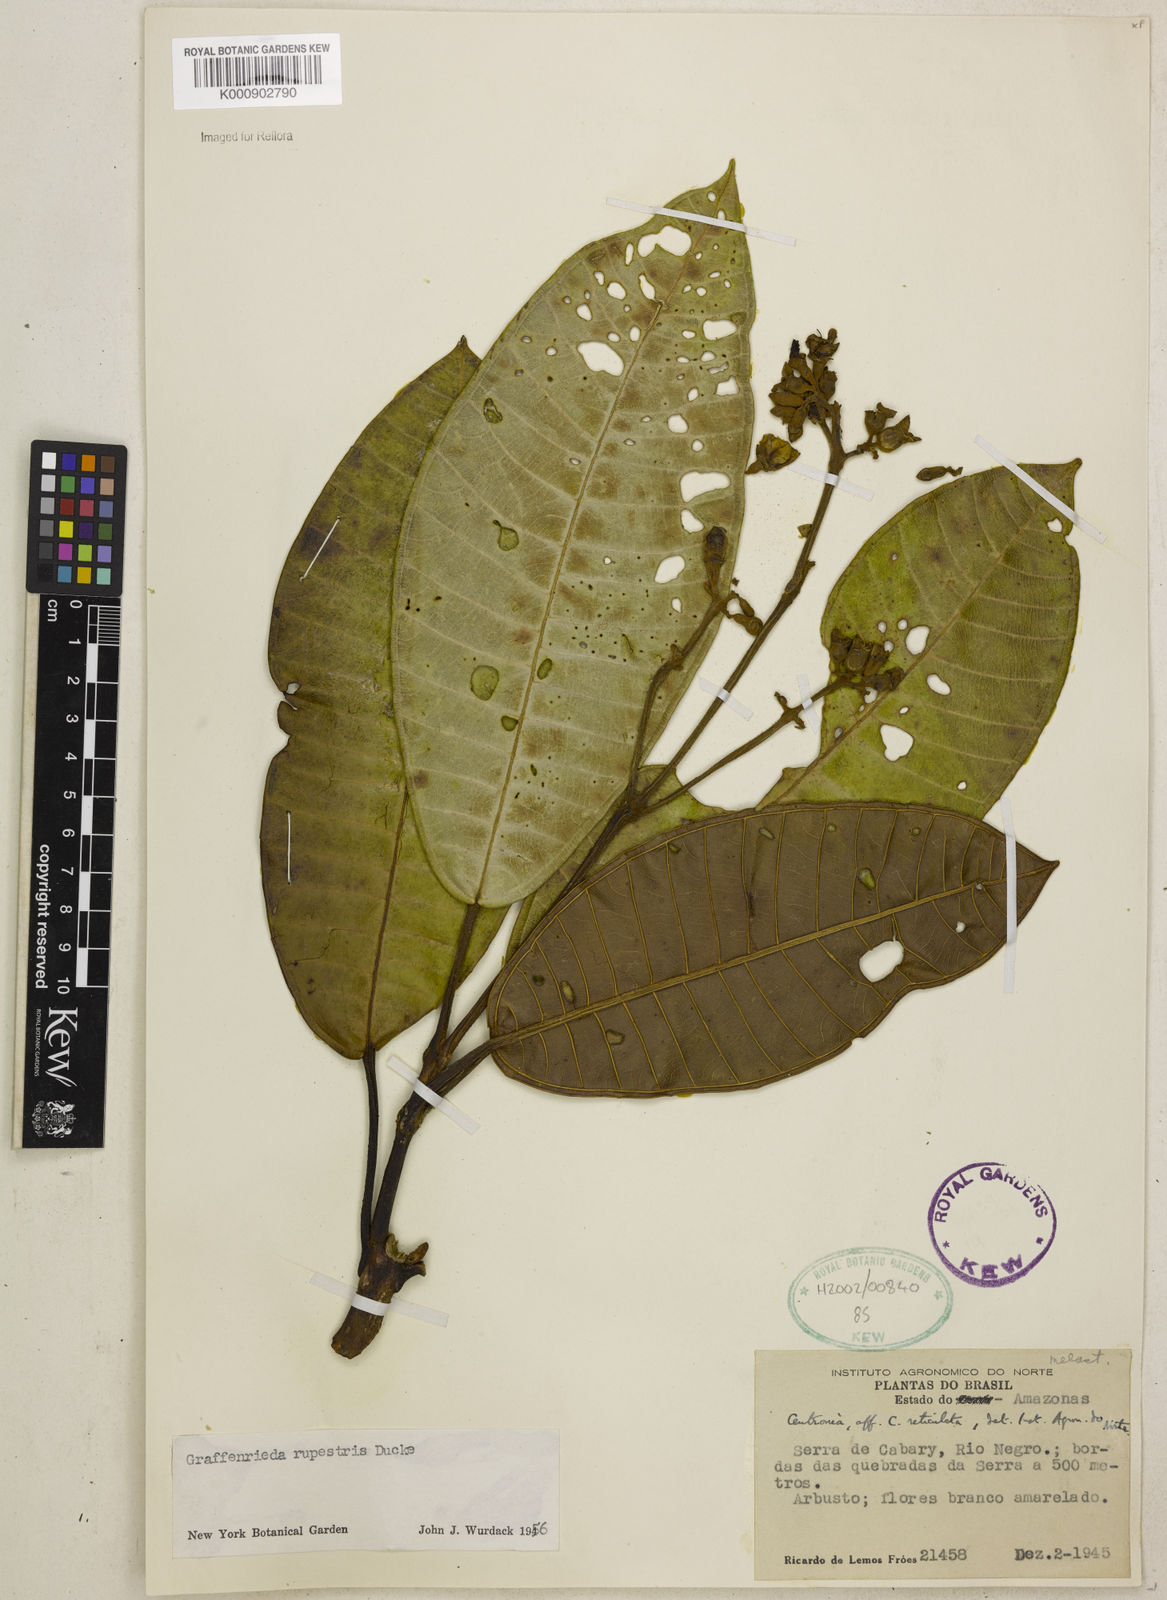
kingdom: Plantae
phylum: Tracheophyta
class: Magnoliopsida
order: Myrtales
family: Melastomataceae
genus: Graffenrieda
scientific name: Graffenrieda rupestris
